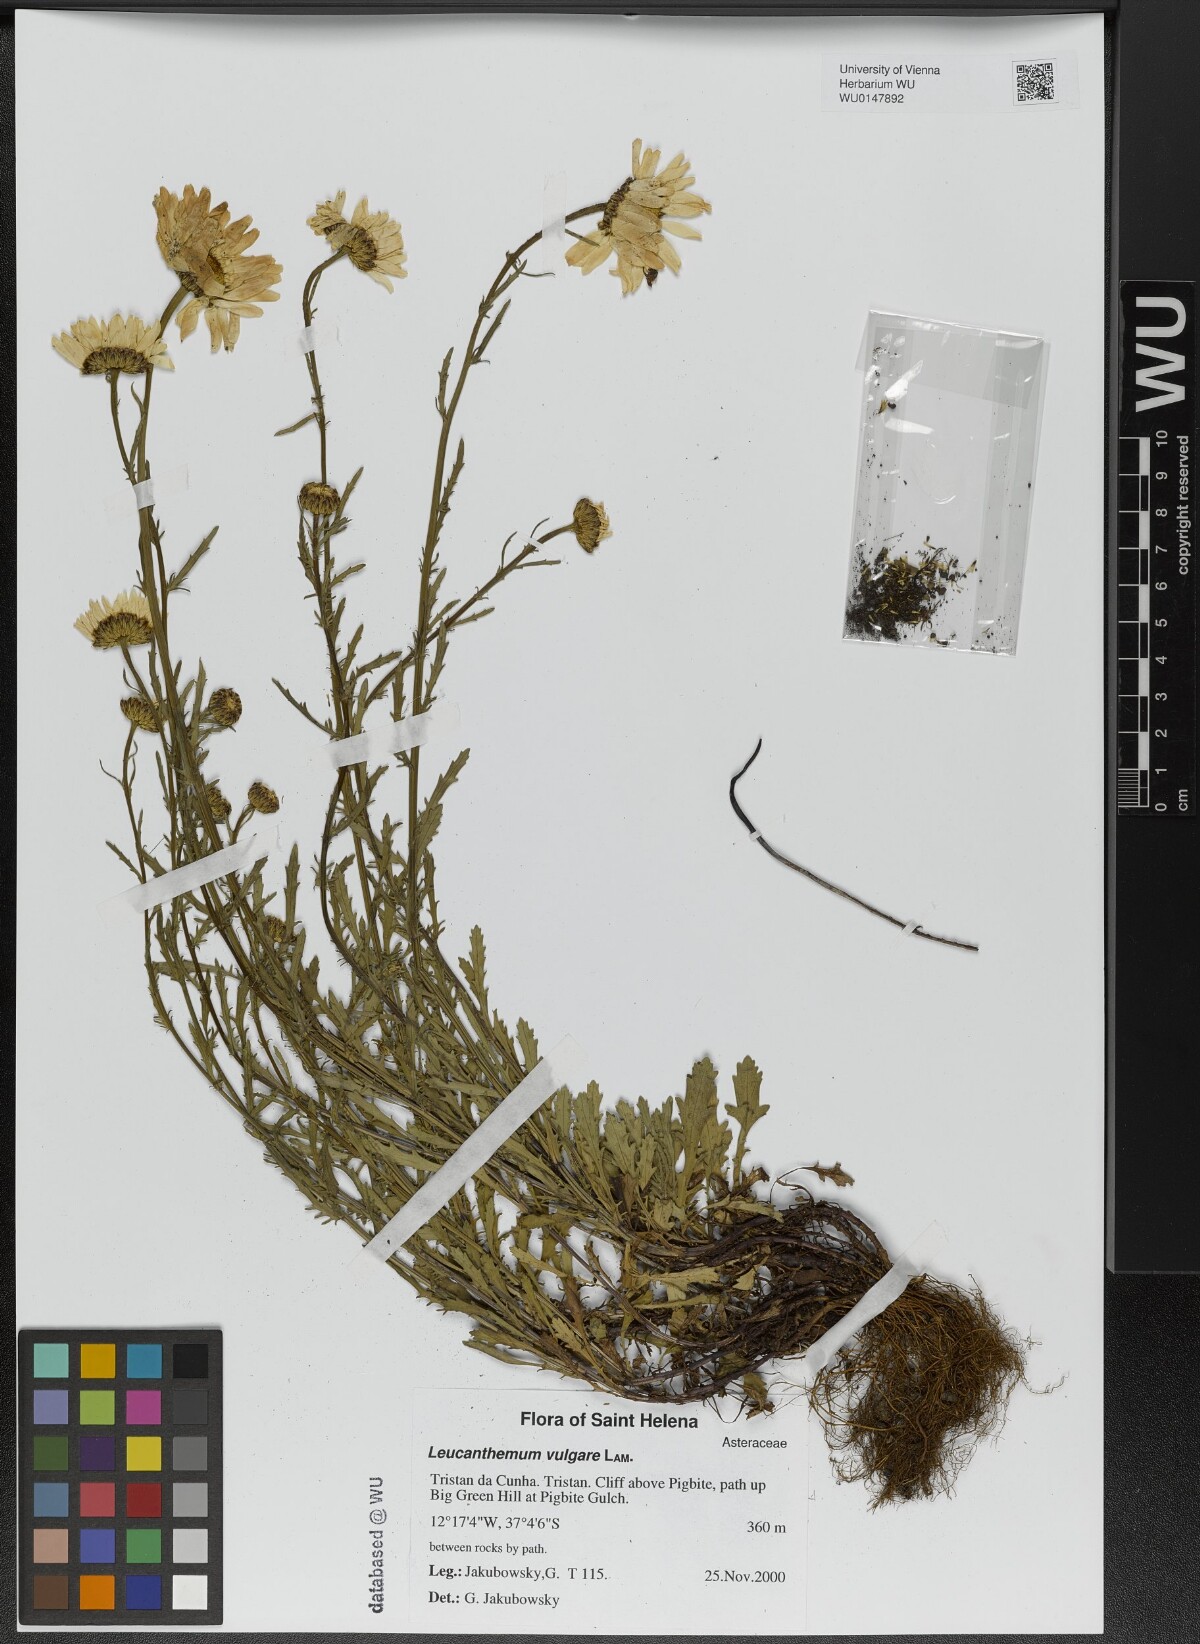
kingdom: Plantae
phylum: Tracheophyta
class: Magnoliopsida
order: Asterales
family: Asteraceae
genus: Leucanthemum
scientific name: Leucanthemum vulgare
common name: Oxeye daisy
